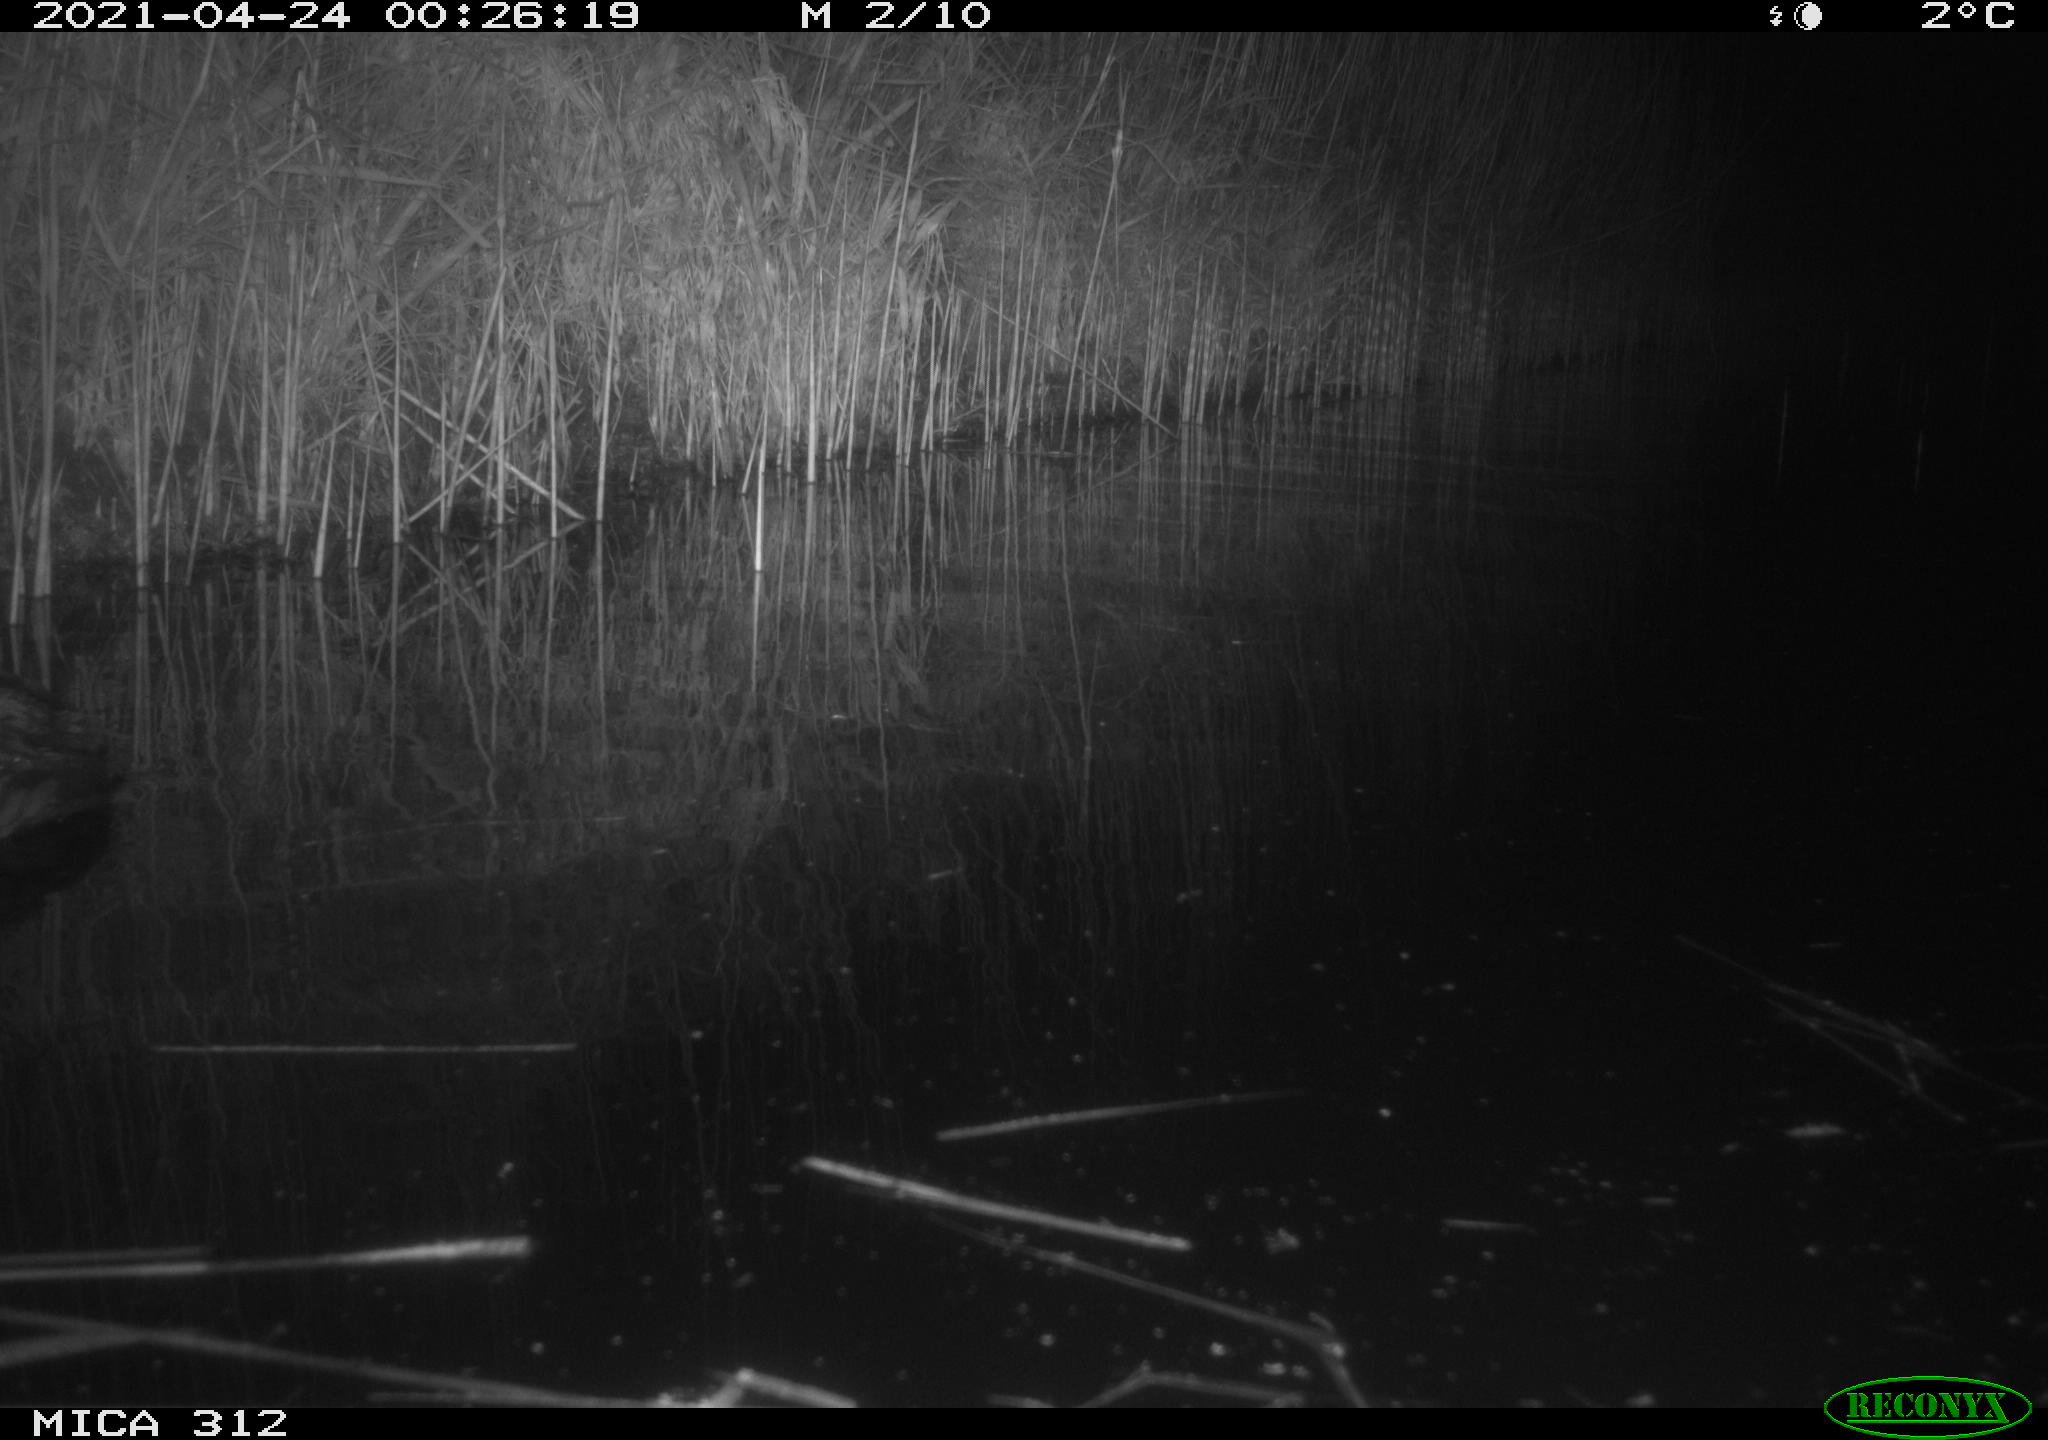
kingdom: Animalia
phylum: Chordata
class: Aves
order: Gruiformes
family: Rallidae
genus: Fulica
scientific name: Fulica atra
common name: Eurasian coot
